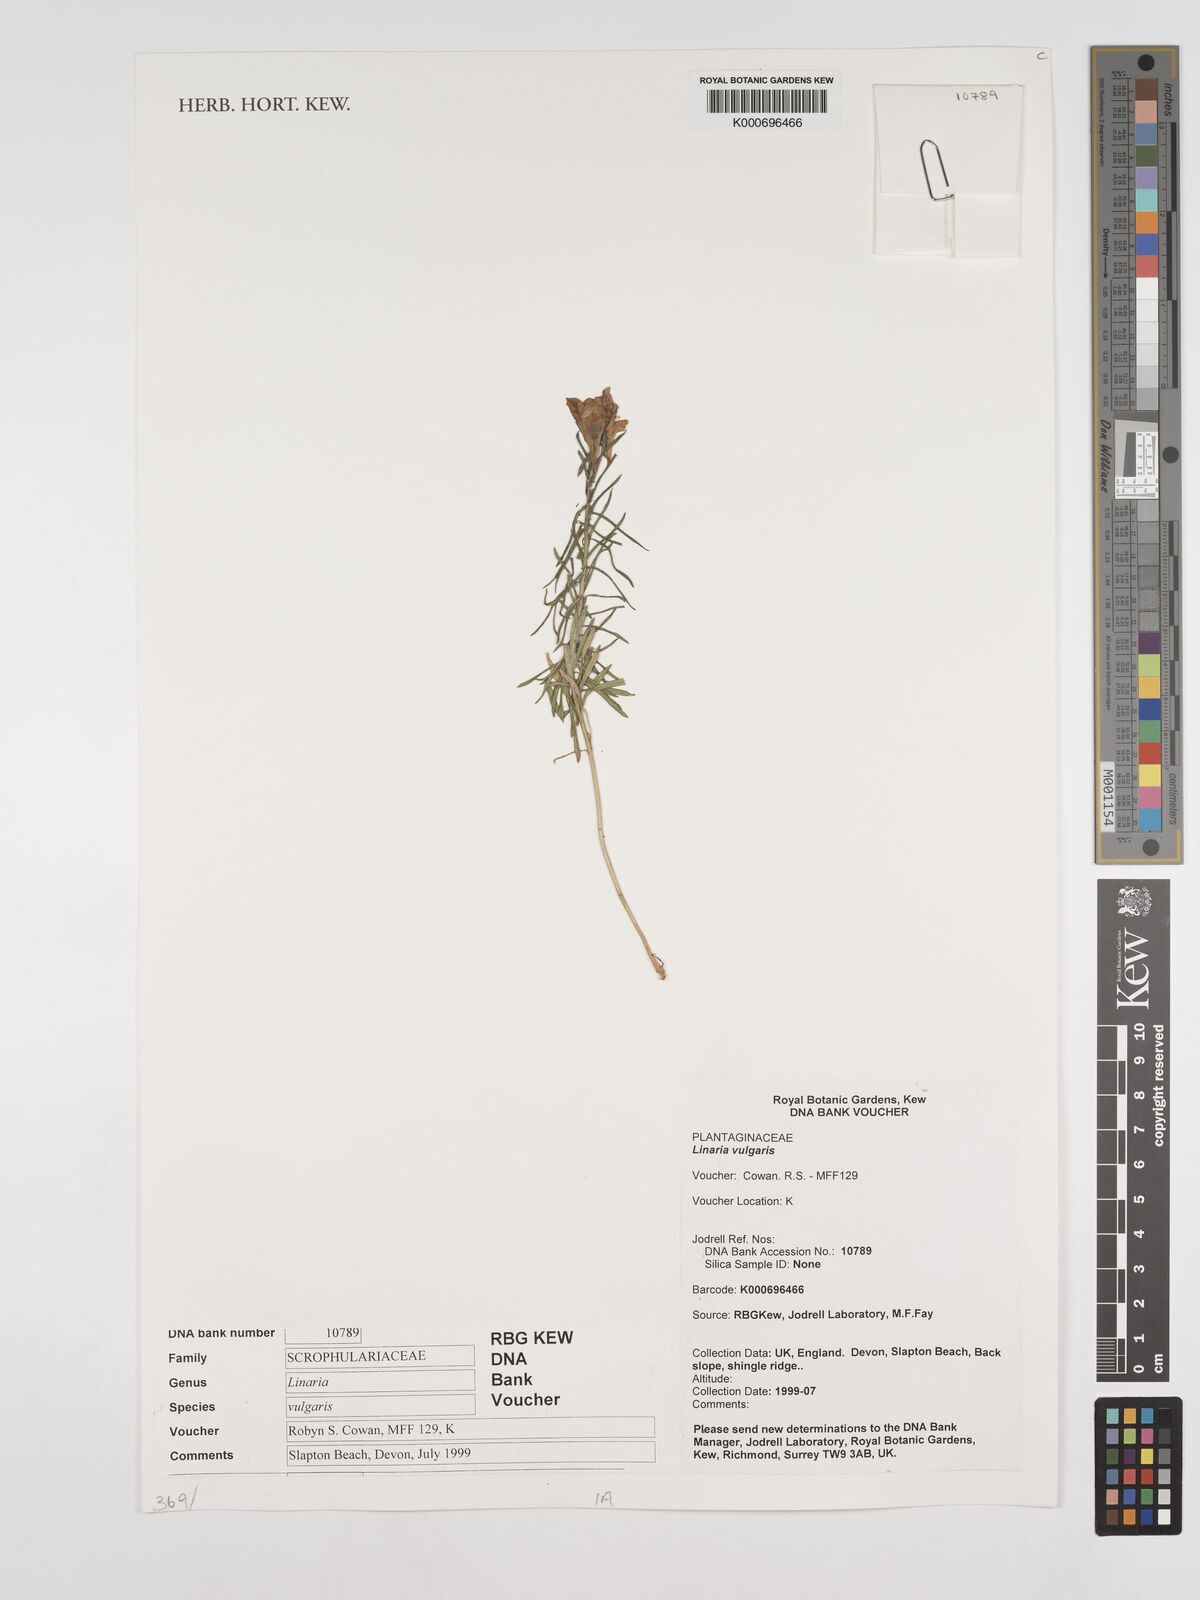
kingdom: Plantae
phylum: Tracheophyta
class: Magnoliopsida
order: Lamiales
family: Plantaginaceae
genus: Linaria
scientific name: Linaria
